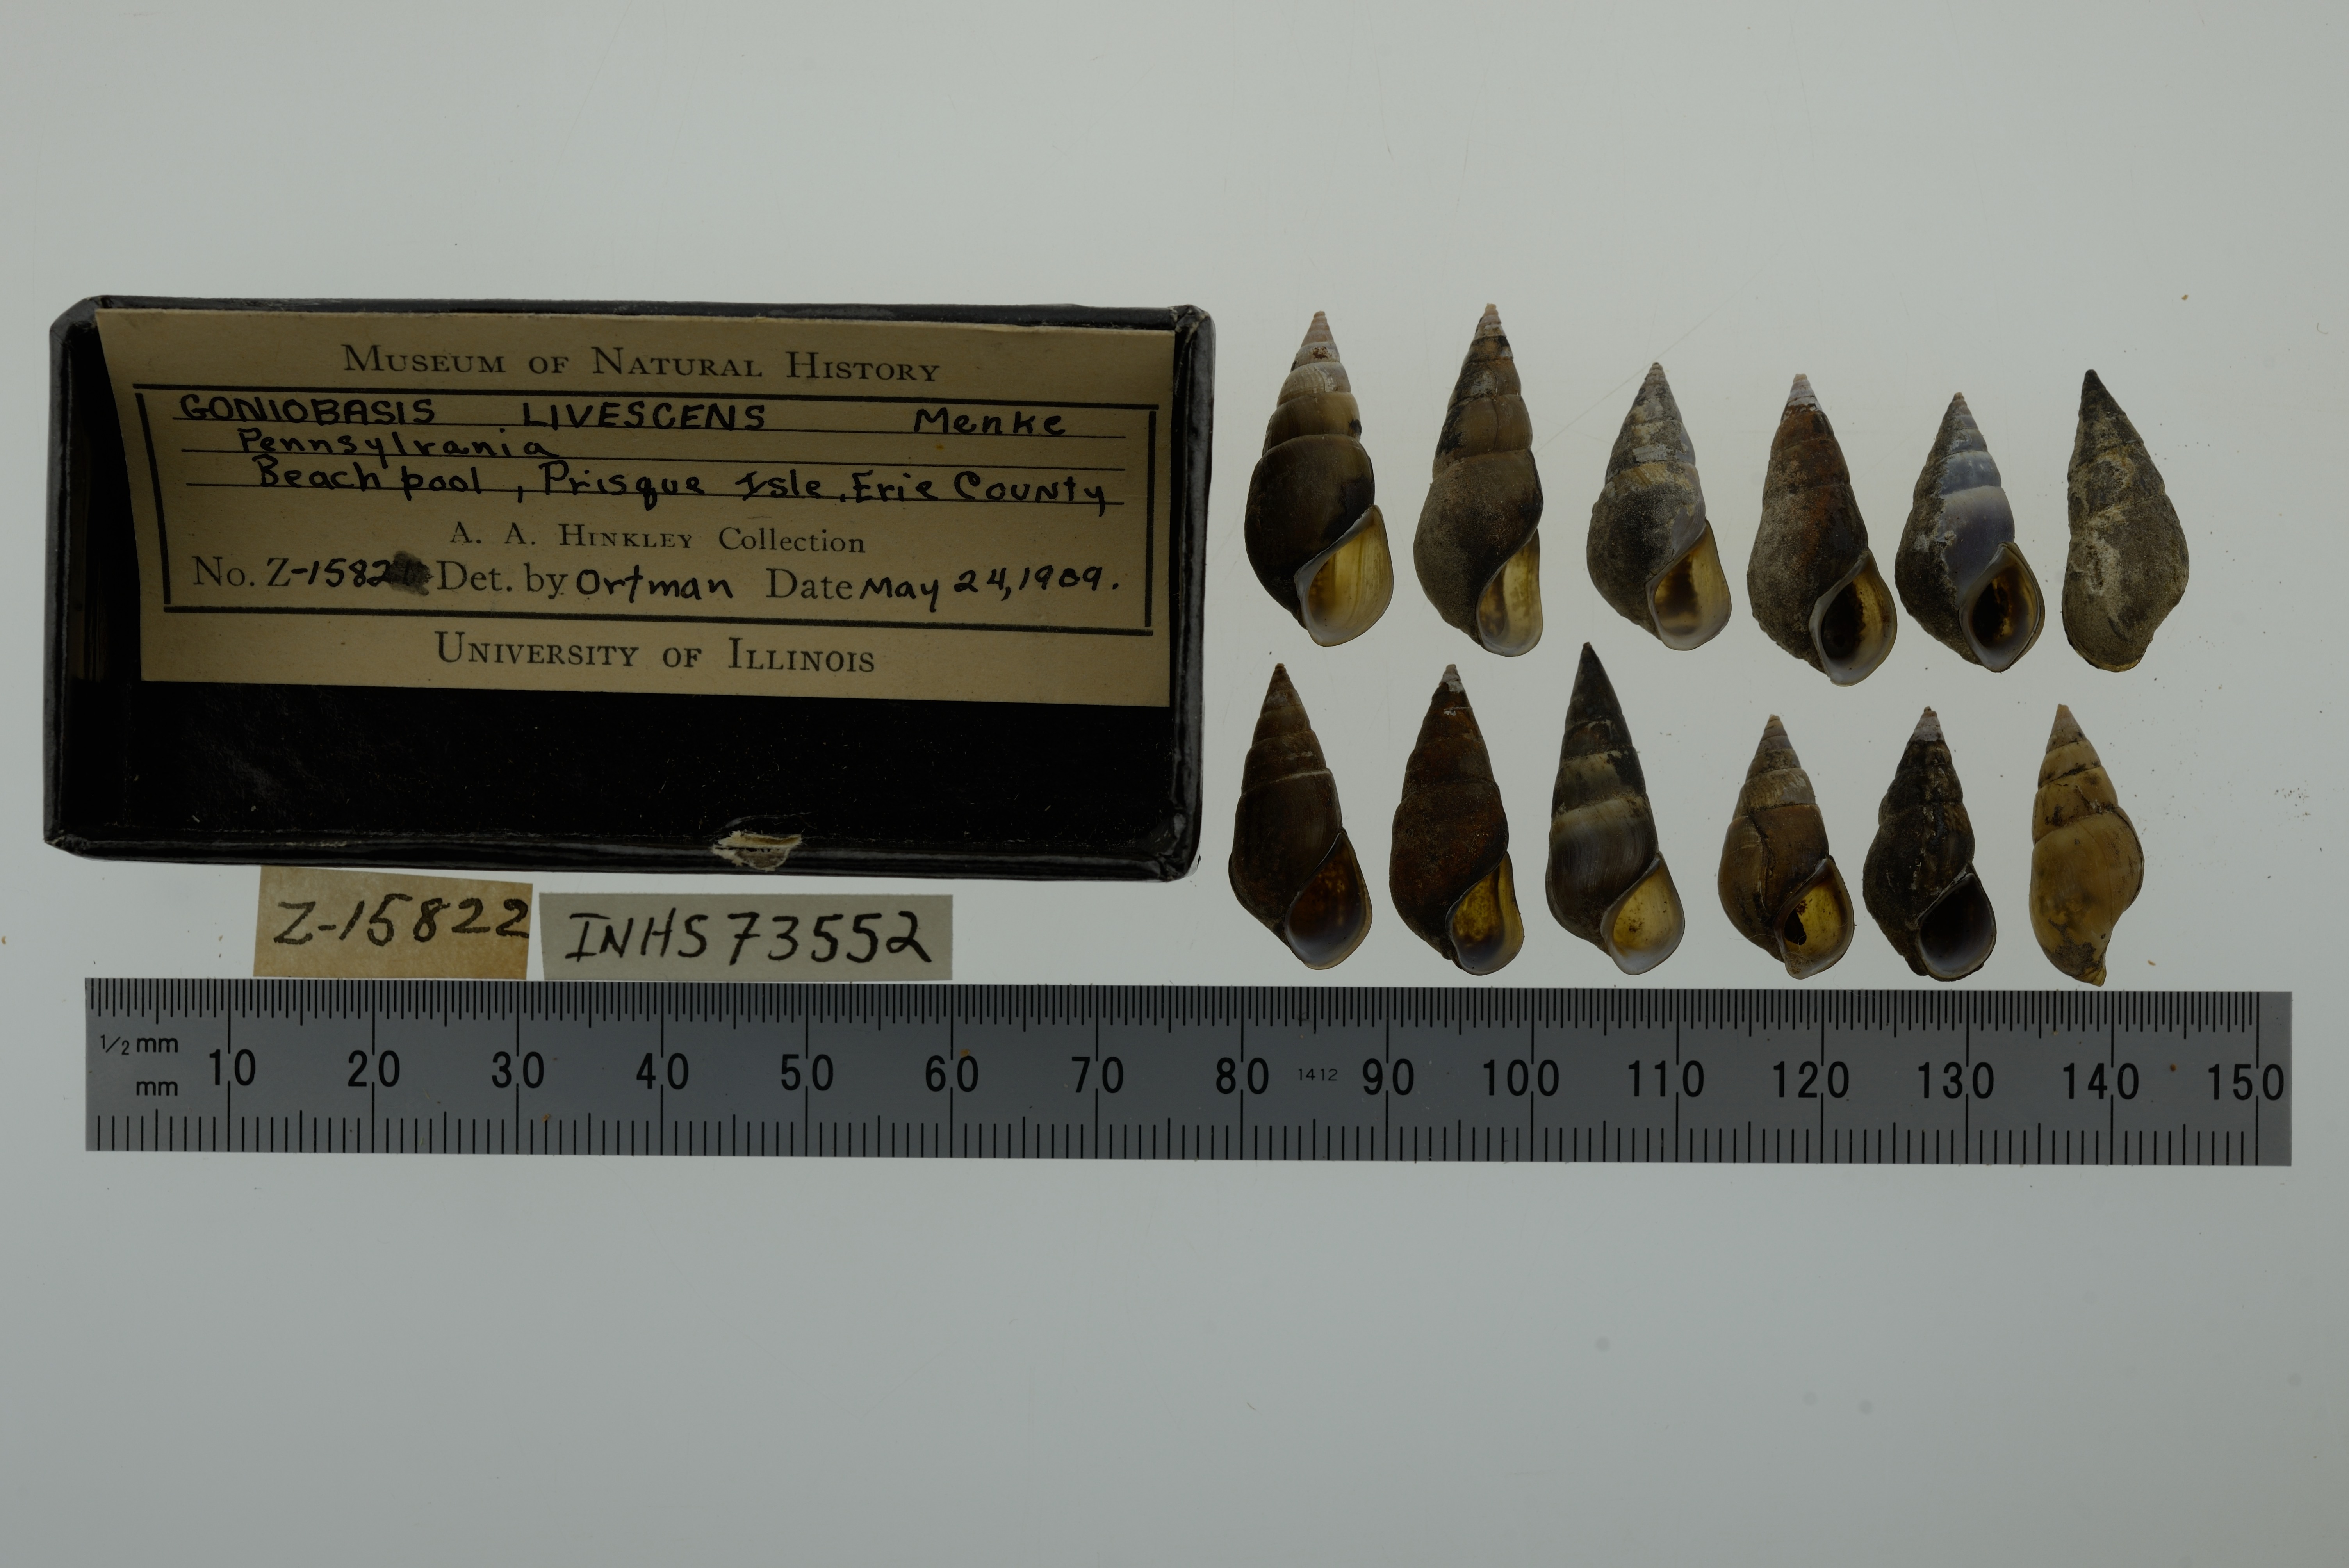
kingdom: Animalia
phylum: Mollusca
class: Gastropoda
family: Pleuroceridae
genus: Elimia
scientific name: Elimia livescens
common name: Liver elimia
